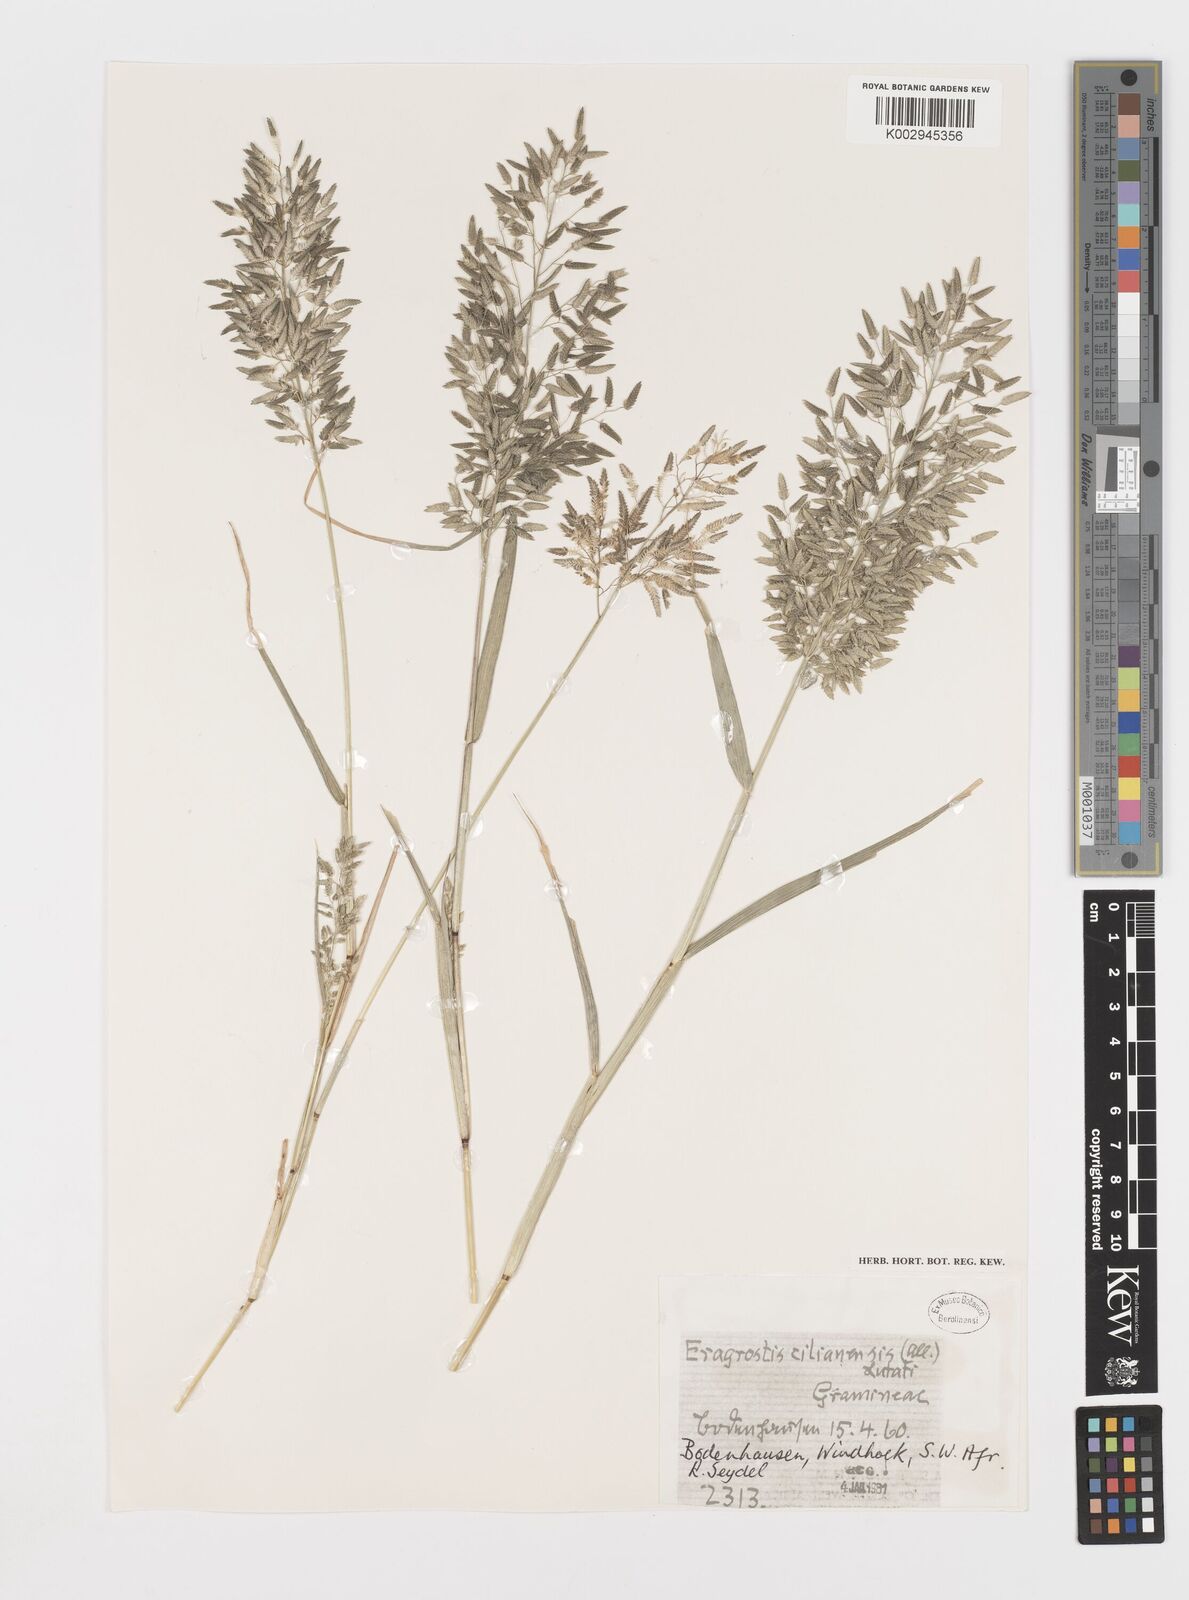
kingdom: Plantae
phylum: Tracheophyta
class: Liliopsida
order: Poales
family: Poaceae
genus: Eragrostis
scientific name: Eragrostis cilianensis
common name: Stinkgrass
